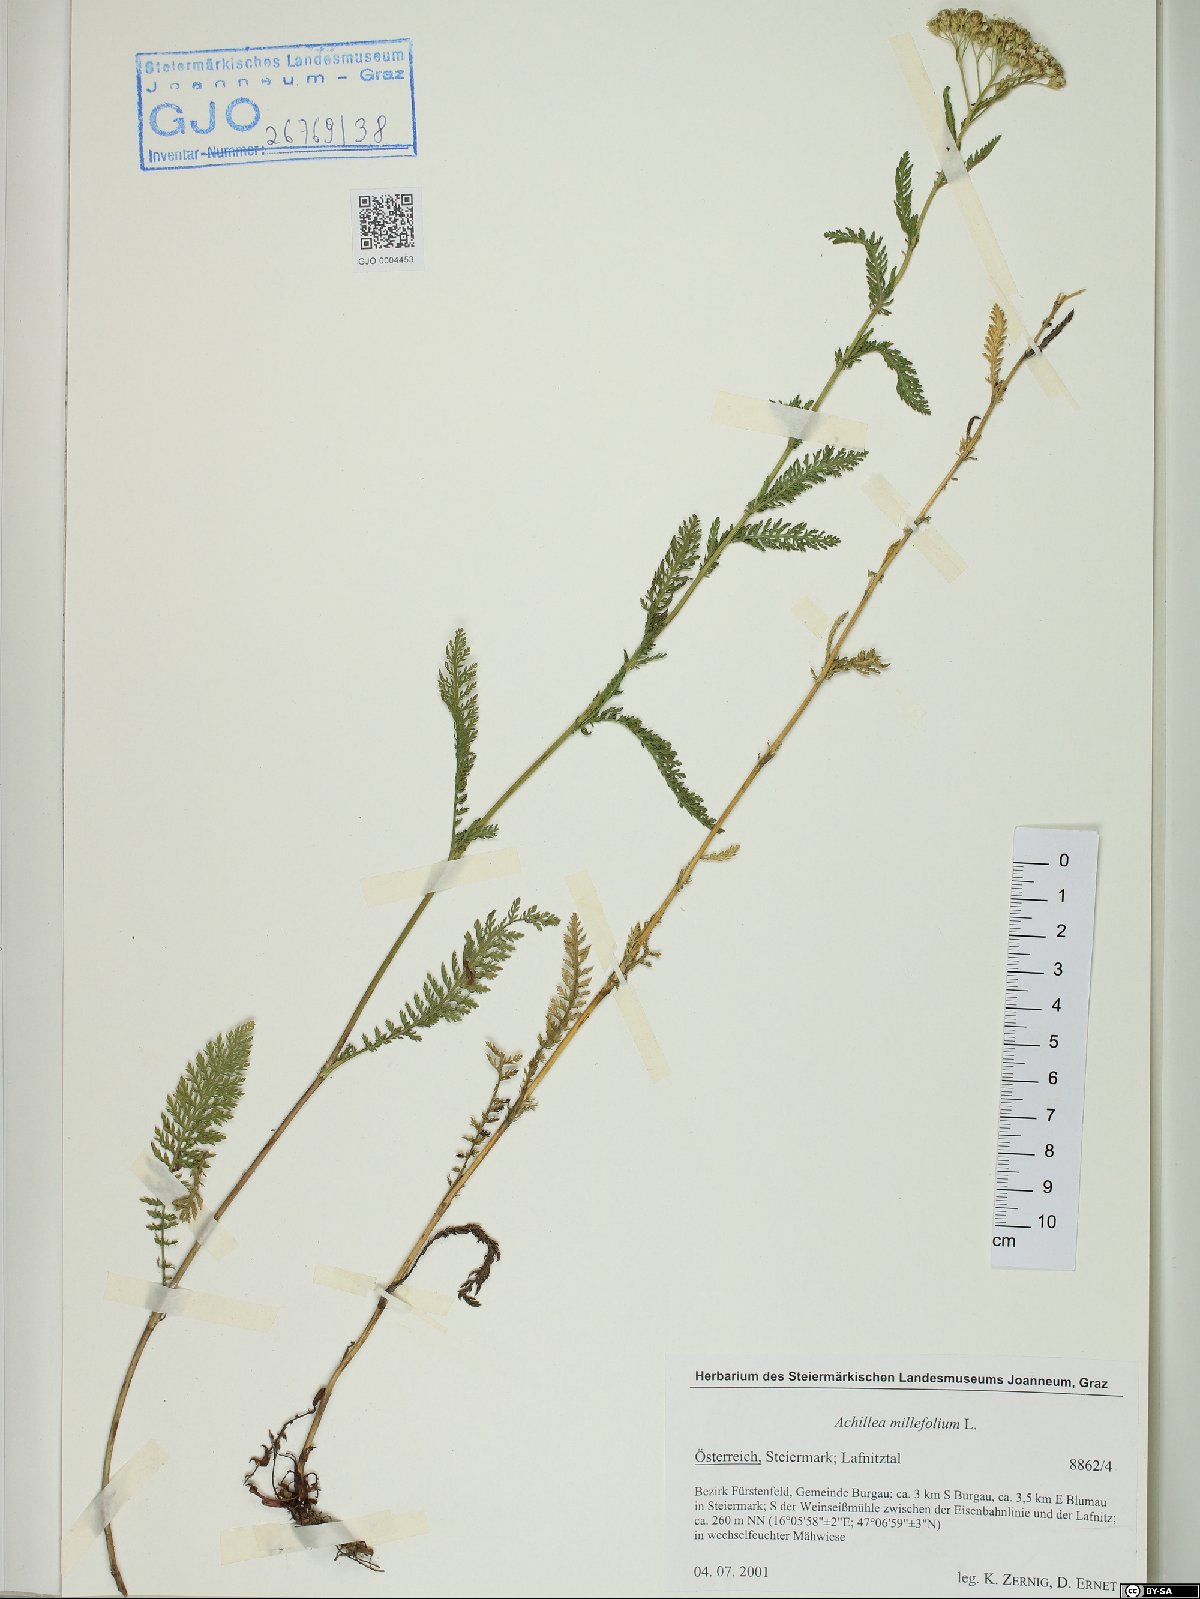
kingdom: Plantae
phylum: Tracheophyta
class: Magnoliopsida
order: Asterales
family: Asteraceae
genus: Achillea
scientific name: Achillea millefolium
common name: Yarrow
